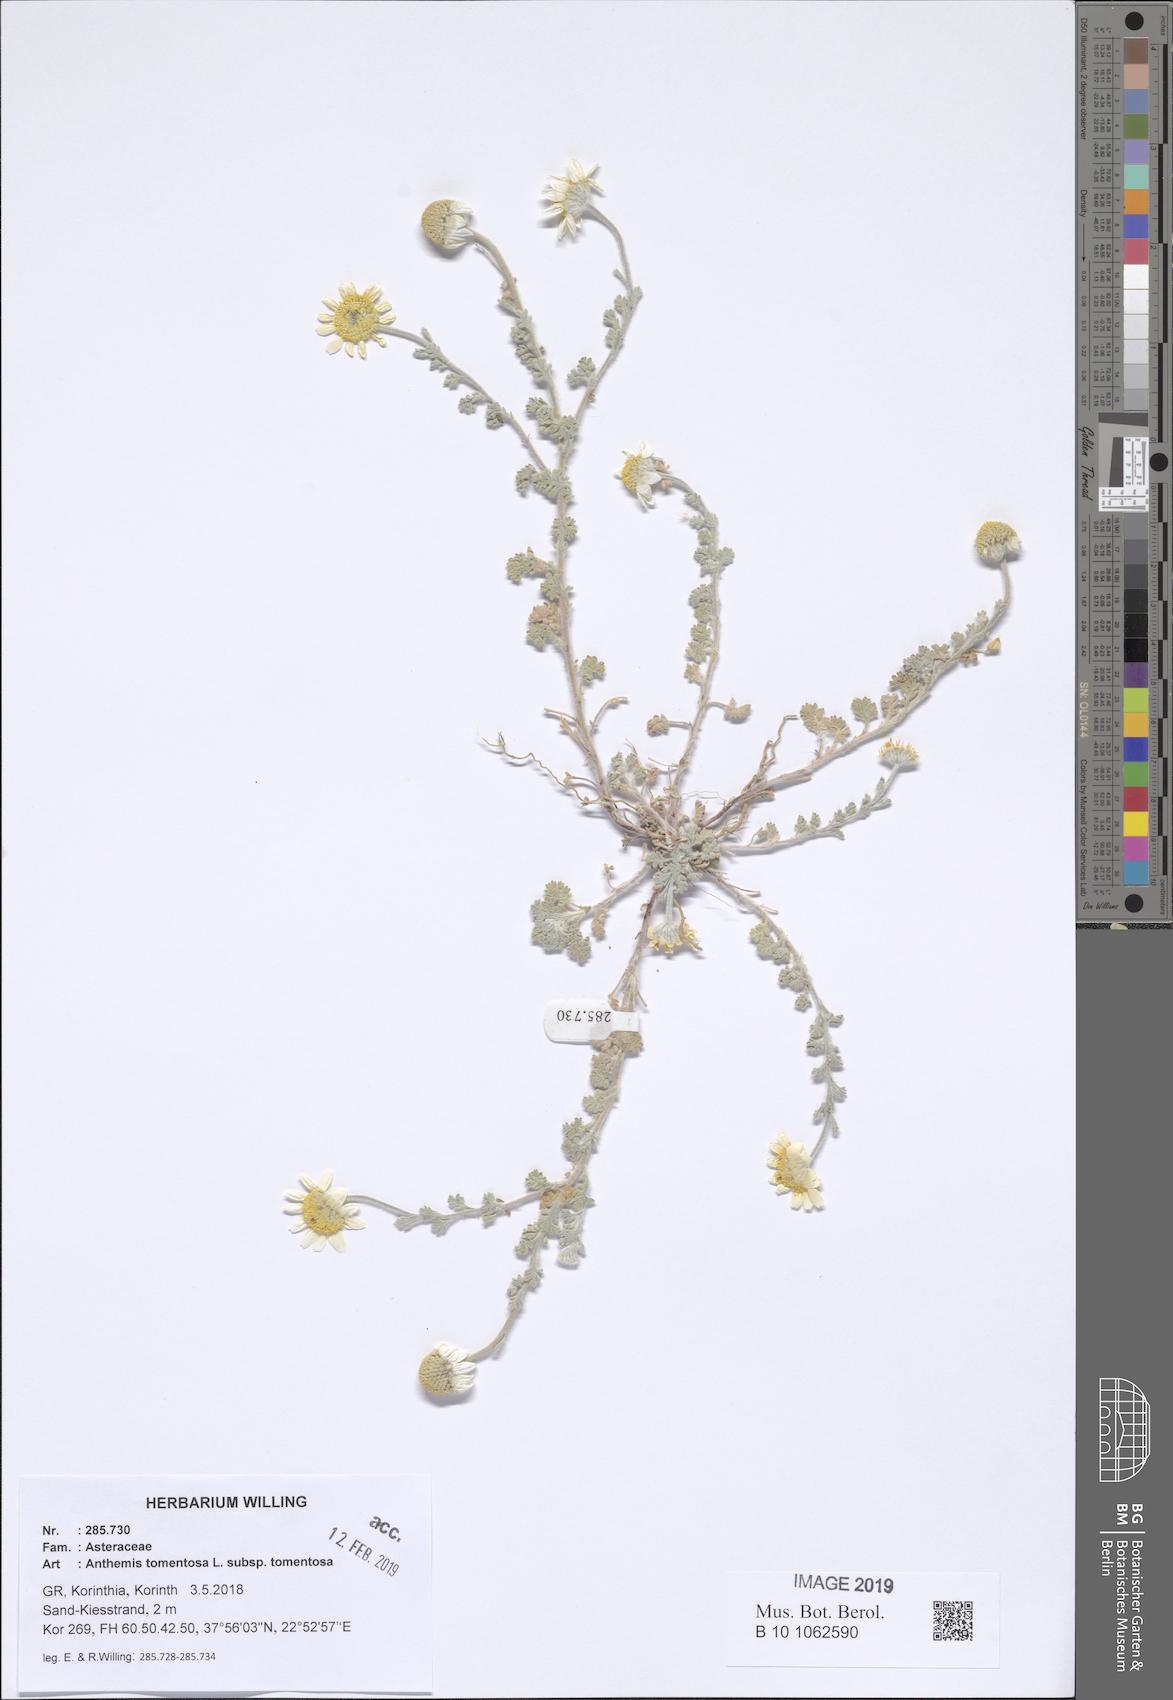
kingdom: Plantae
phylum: Tracheophyta
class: Magnoliopsida
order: Asterales
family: Asteraceae
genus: Anthemis
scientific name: Anthemis tomentosa
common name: Woolly chamomile
